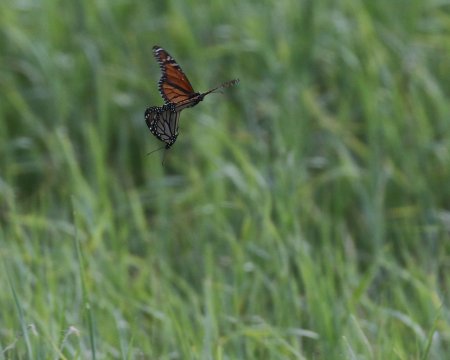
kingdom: Animalia
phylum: Arthropoda
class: Insecta
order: Lepidoptera
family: Nymphalidae
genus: Danaus
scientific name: Danaus plexippus
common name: Monarch
